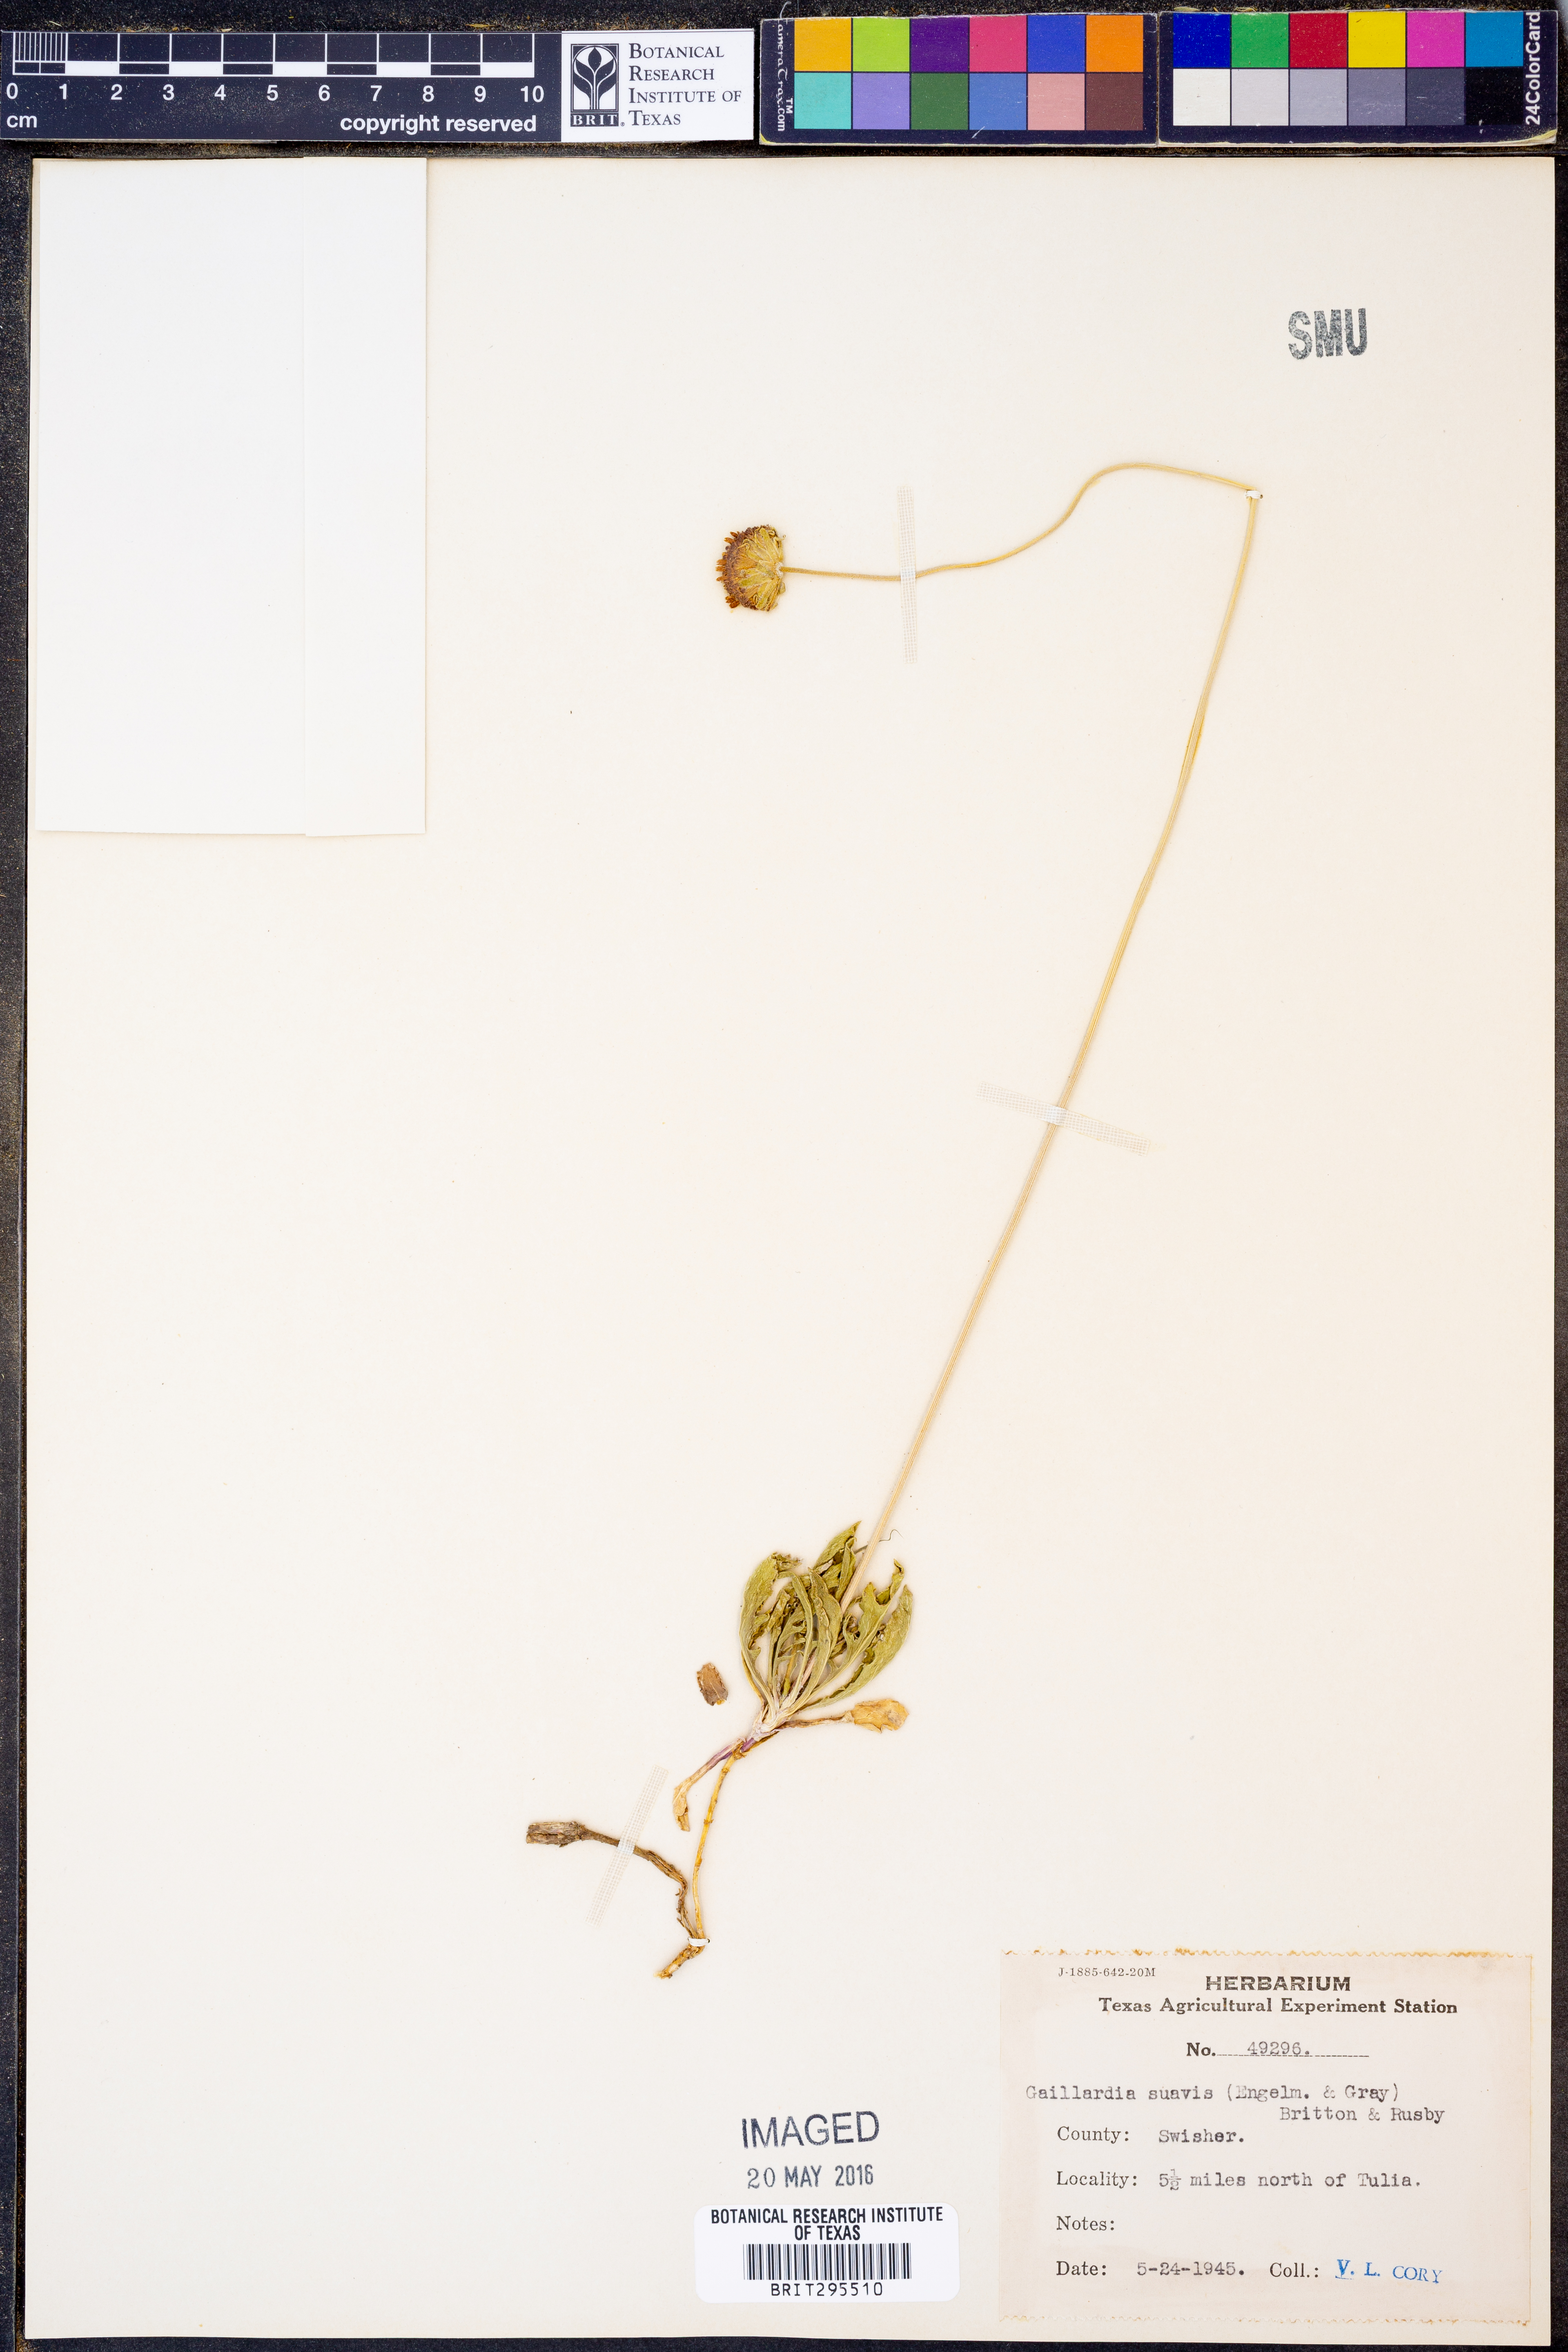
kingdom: Plantae
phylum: Tracheophyta
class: Magnoliopsida
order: Asterales
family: Asteraceae
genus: Gaillardia
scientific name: Gaillardia suavis
